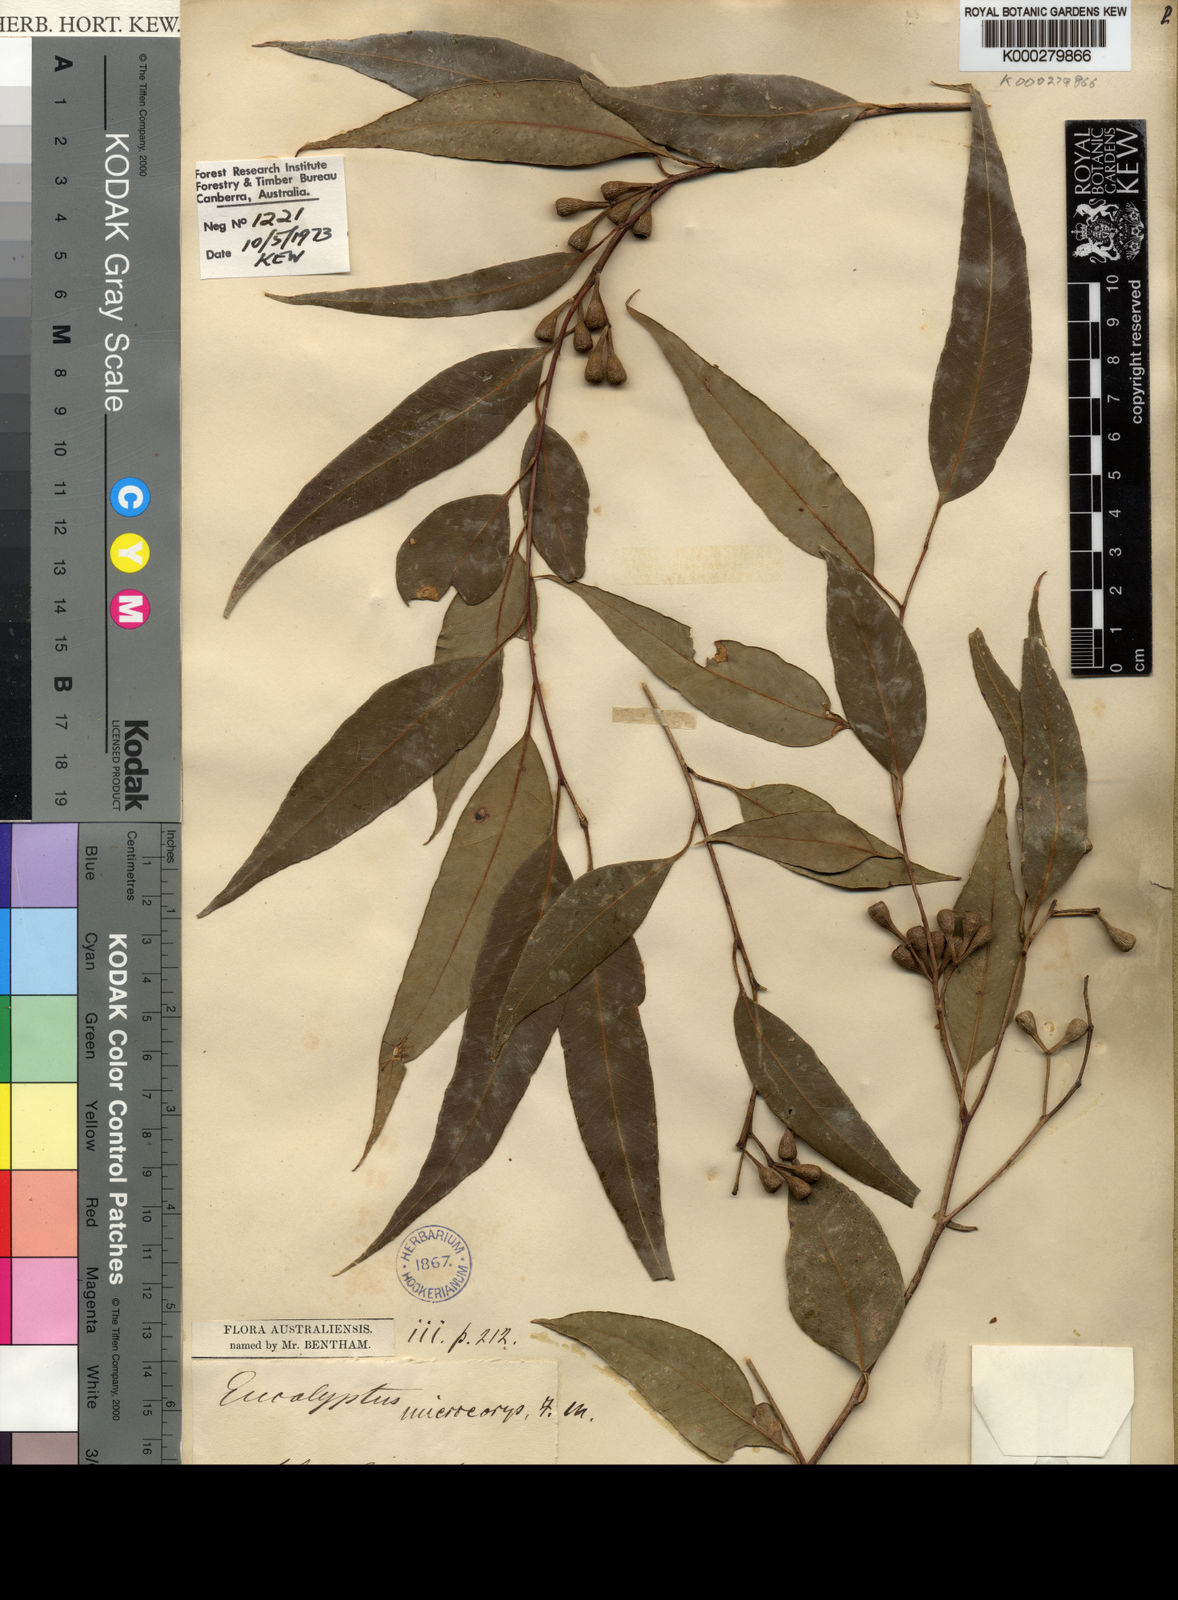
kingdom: Plantae
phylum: Tracheophyta
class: Magnoliopsida
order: Myrtales
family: Myrtaceae
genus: Eucalyptus
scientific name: Eucalyptus microcorys
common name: Tallowwood
